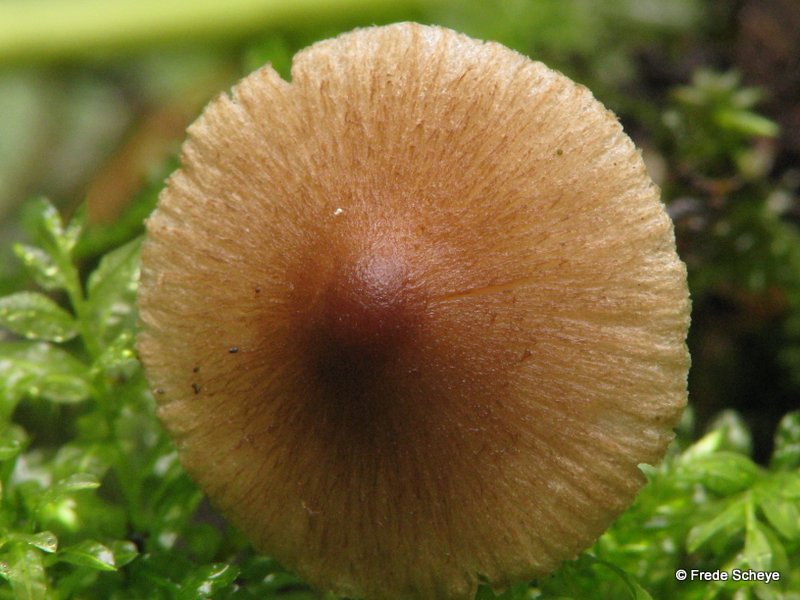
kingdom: Fungi
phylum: Basidiomycota
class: Agaricomycetes
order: Agaricales
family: Inocybaceae
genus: Inocybe
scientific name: Inocybe
